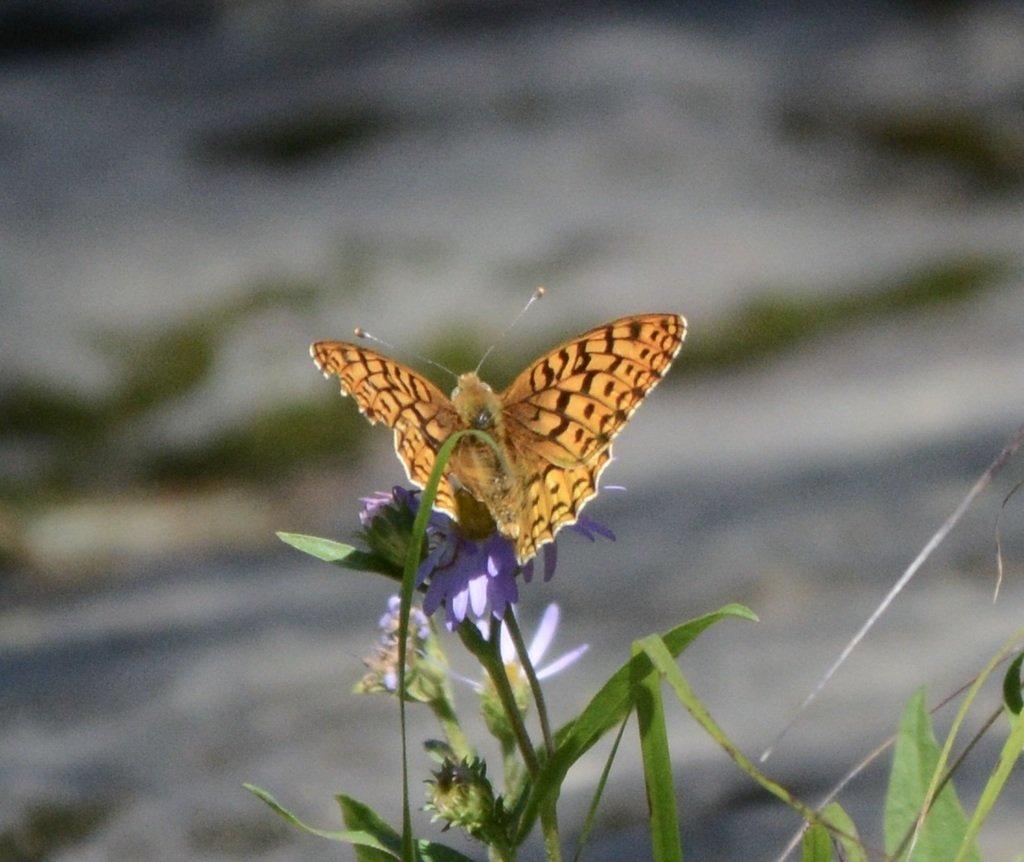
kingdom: Animalia
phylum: Arthropoda
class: Insecta
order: Lepidoptera
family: Nymphalidae
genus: Speyeria
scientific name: Speyeria zerene
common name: Zerene Fritillary
